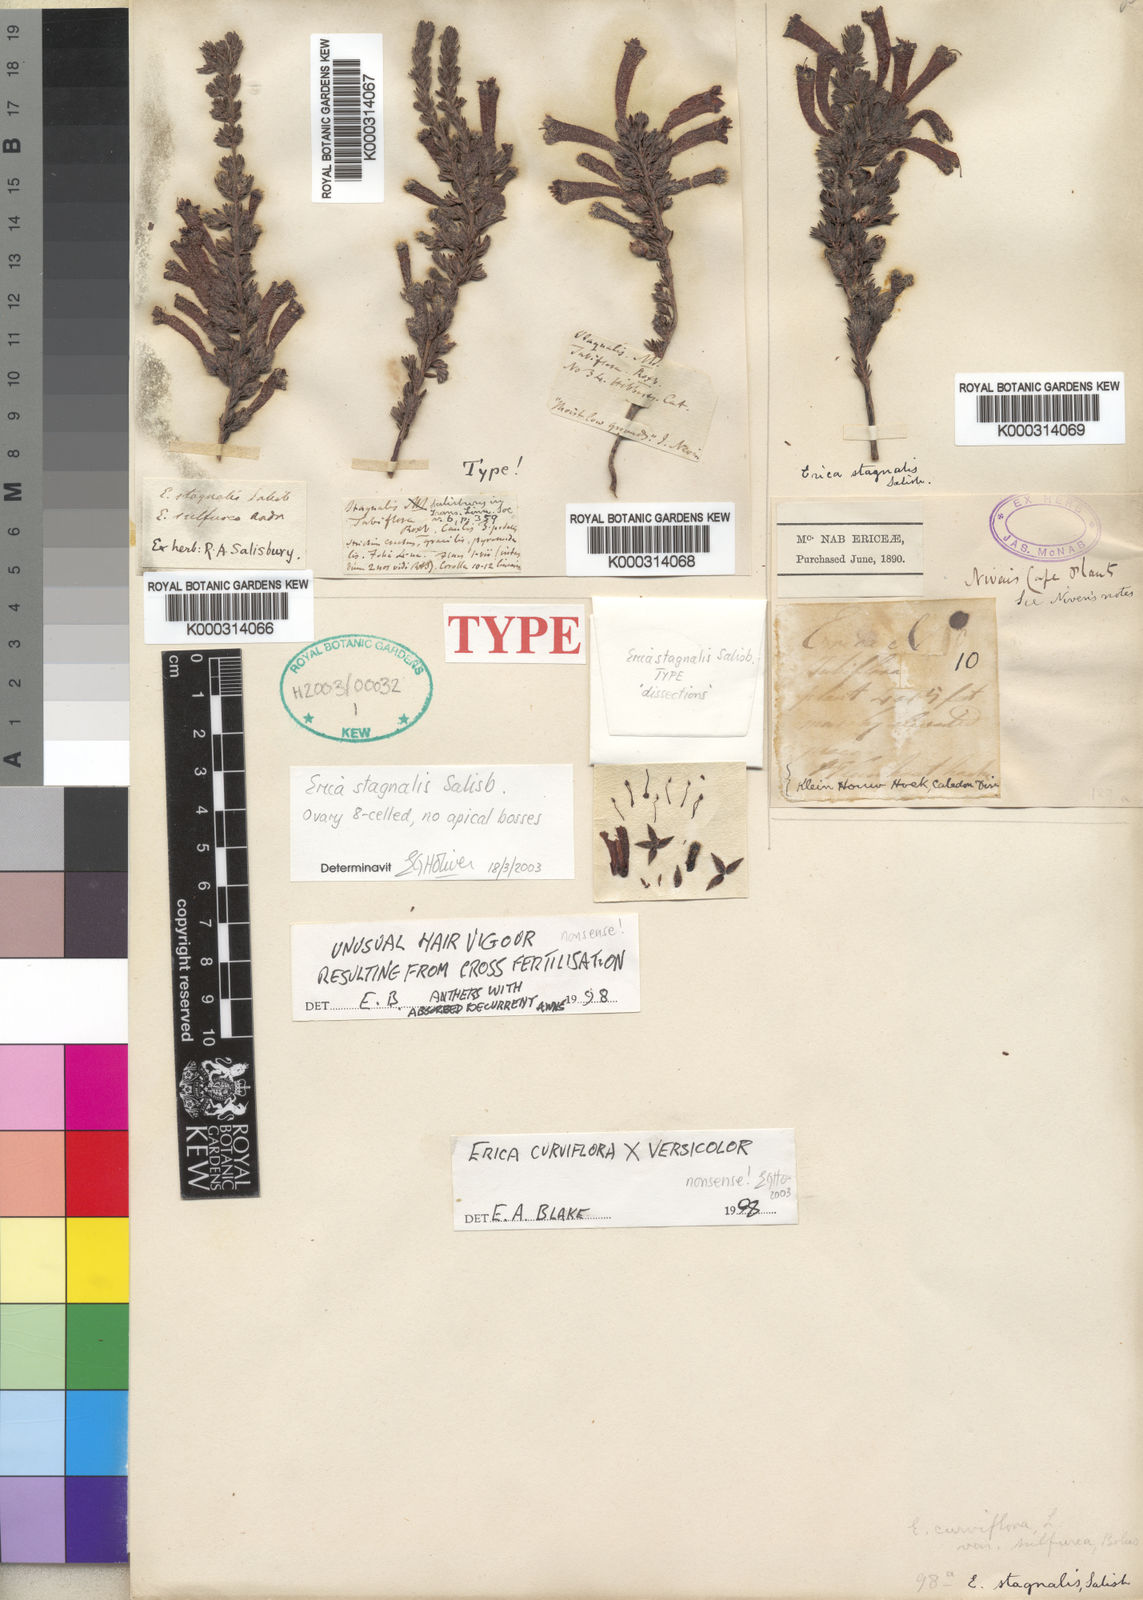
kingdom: Plantae
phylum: Tracheophyta
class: Magnoliopsida
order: Ericales
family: Ericaceae
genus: Erica
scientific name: Erica
